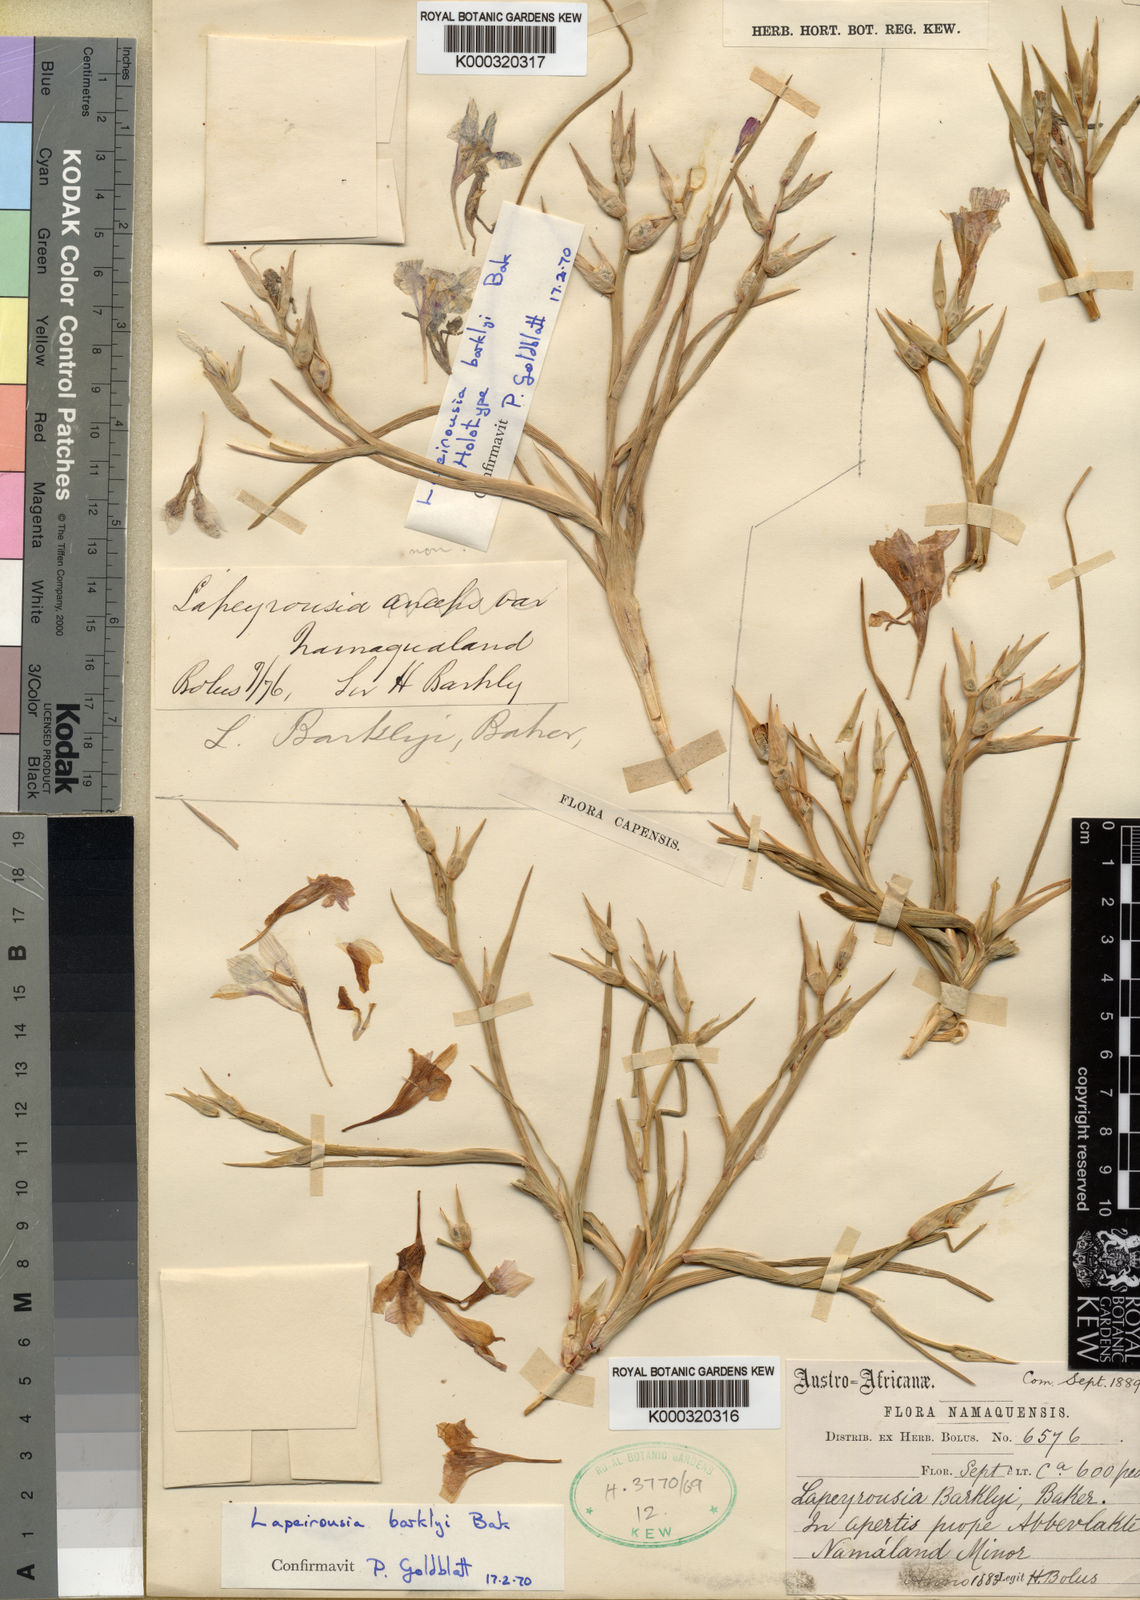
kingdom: Plantae
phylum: Tracheophyta
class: Liliopsida
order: Asparagales
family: Iridaceae
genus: Lapeirousia
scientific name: Lapeirousia barklyi
